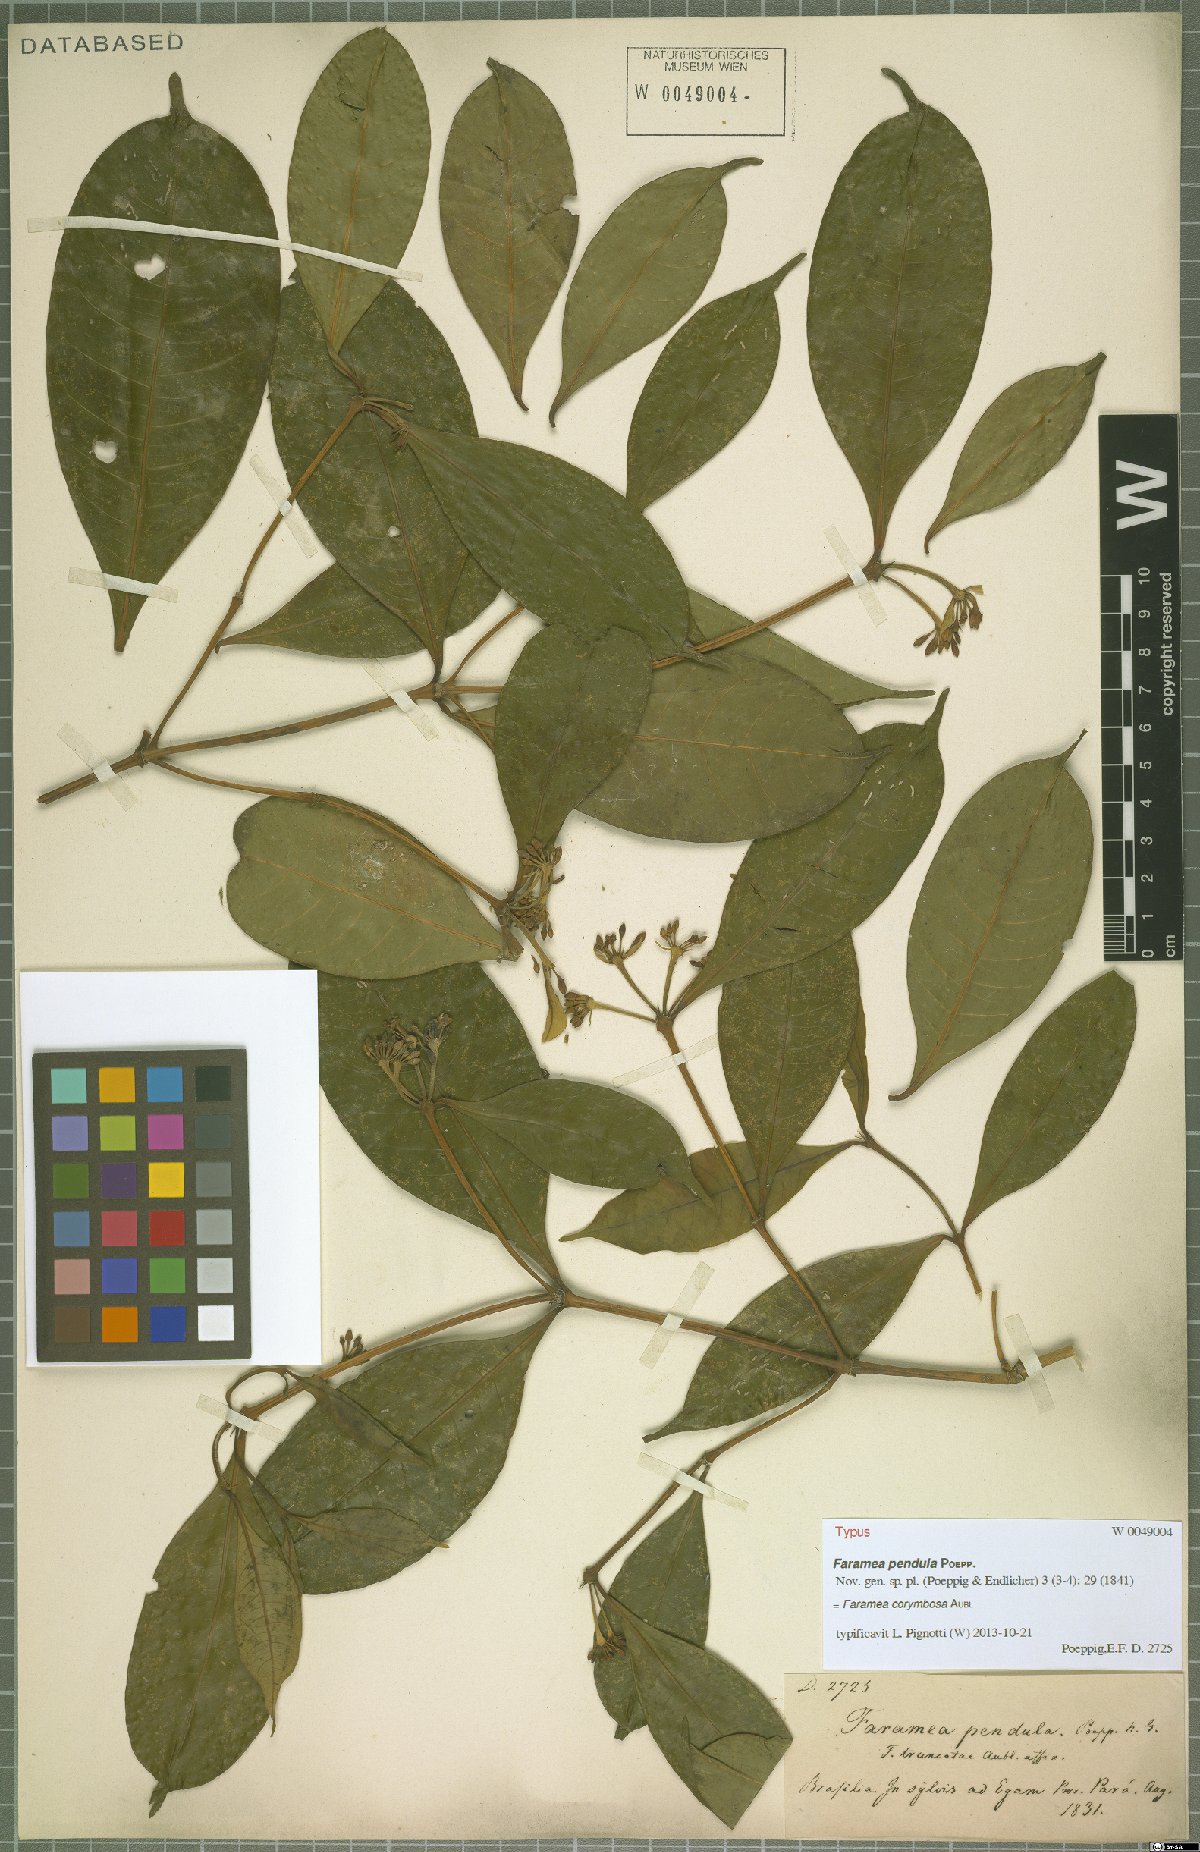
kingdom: Plantae
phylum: Tracheophyta
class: Magnoliopsida
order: Gentianales
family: Rubiaceae
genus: Faramea
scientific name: Faramea corymbosa
